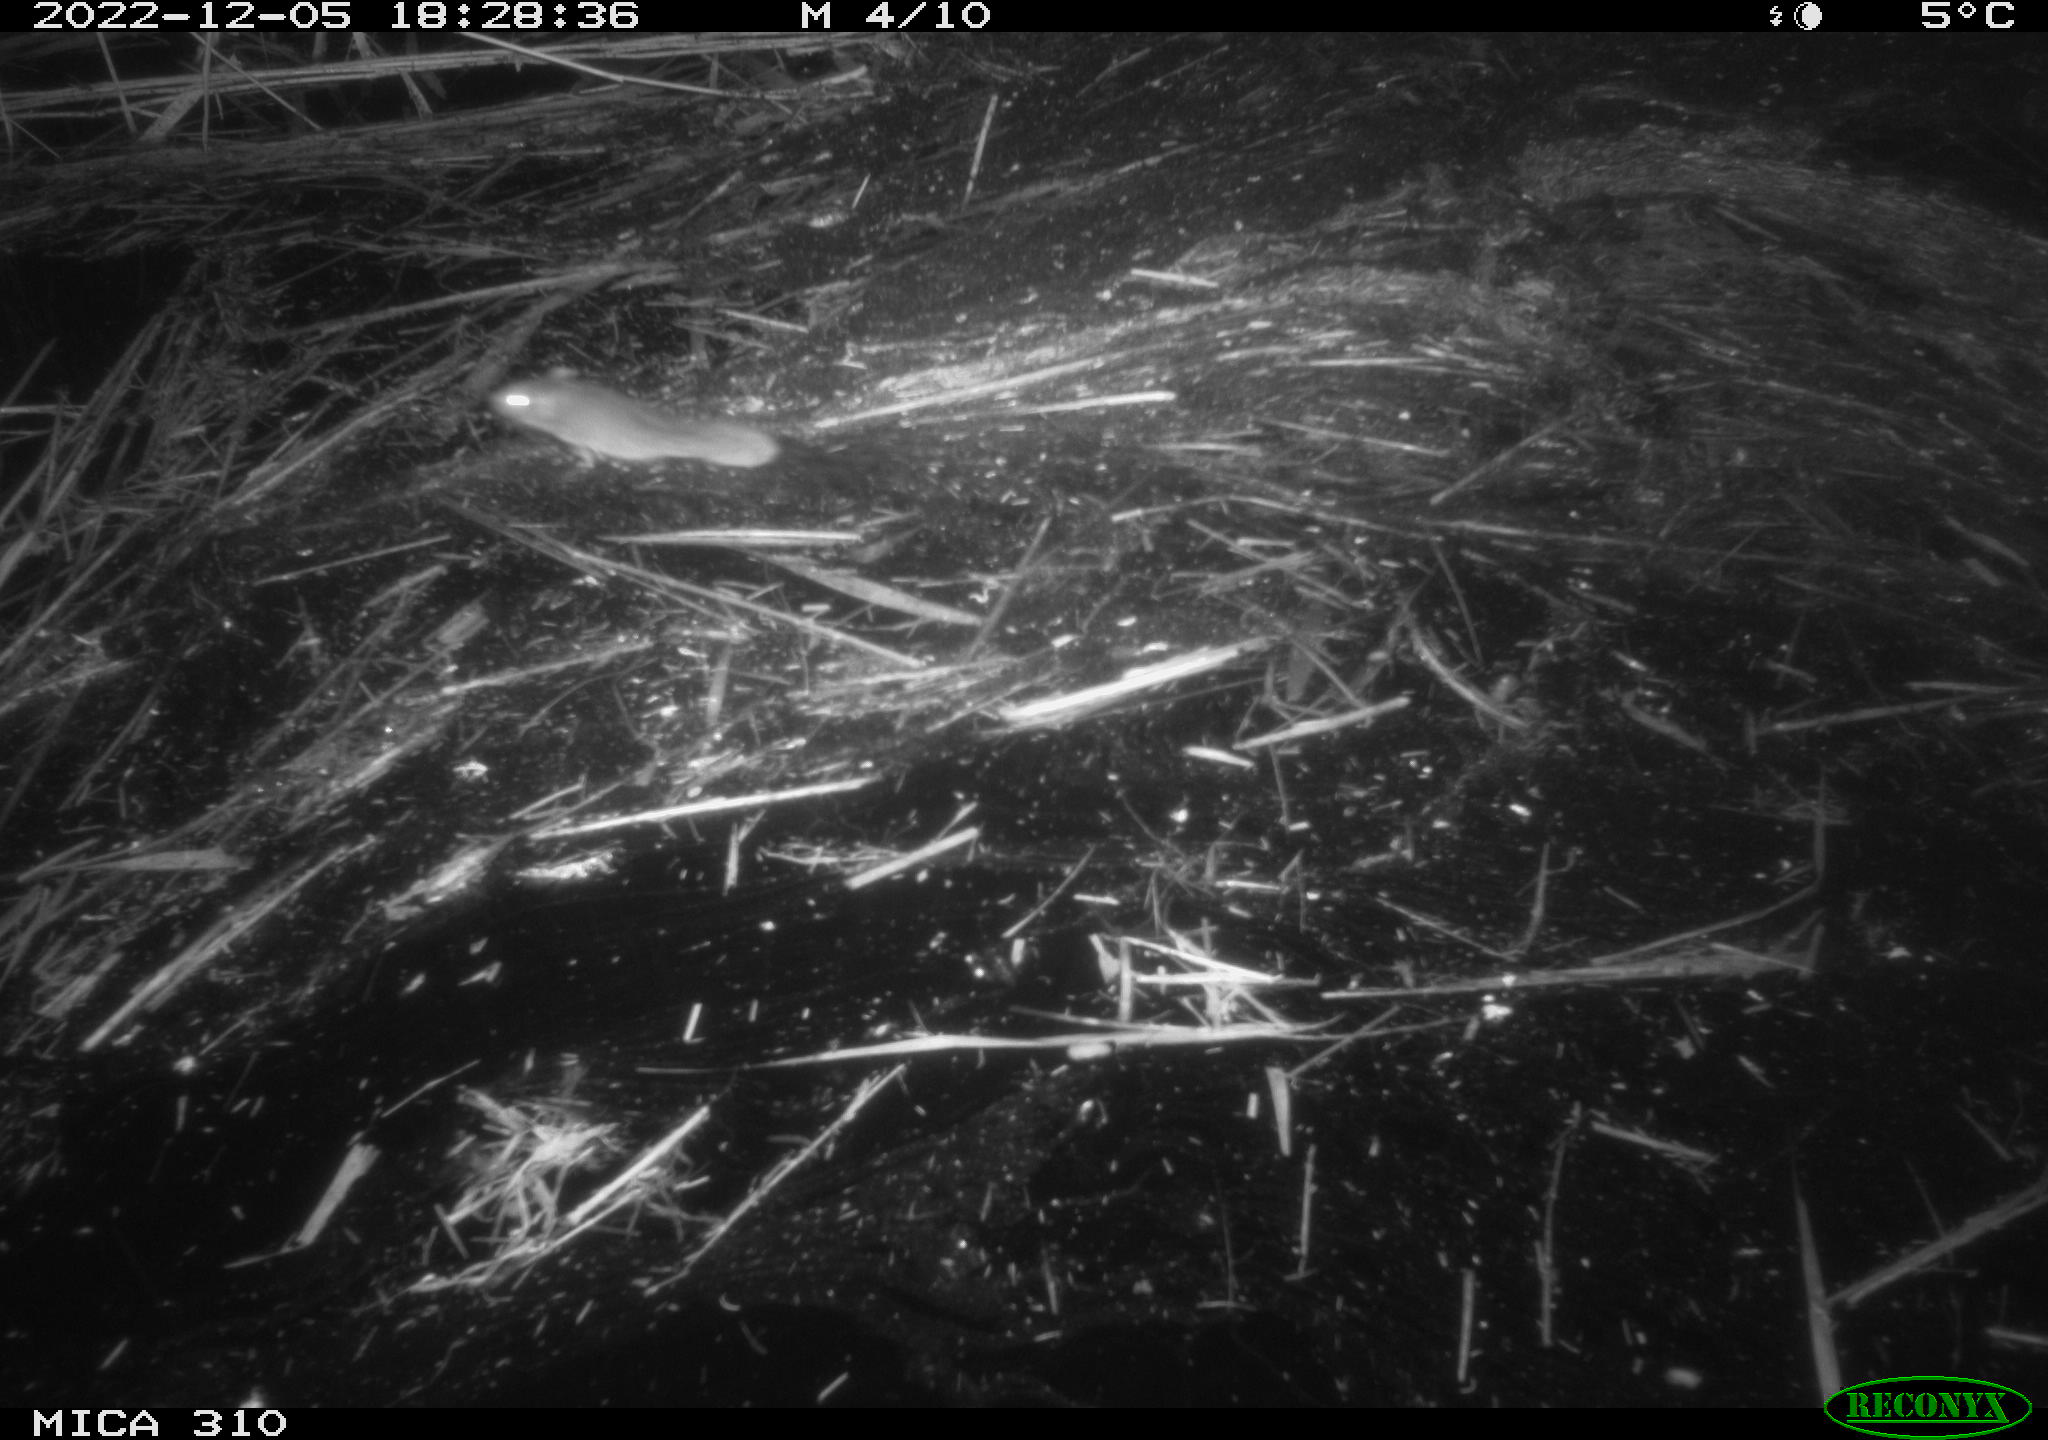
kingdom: Animalia
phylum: Chordata
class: Mammalia
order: Rodentia
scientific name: Rodentia
